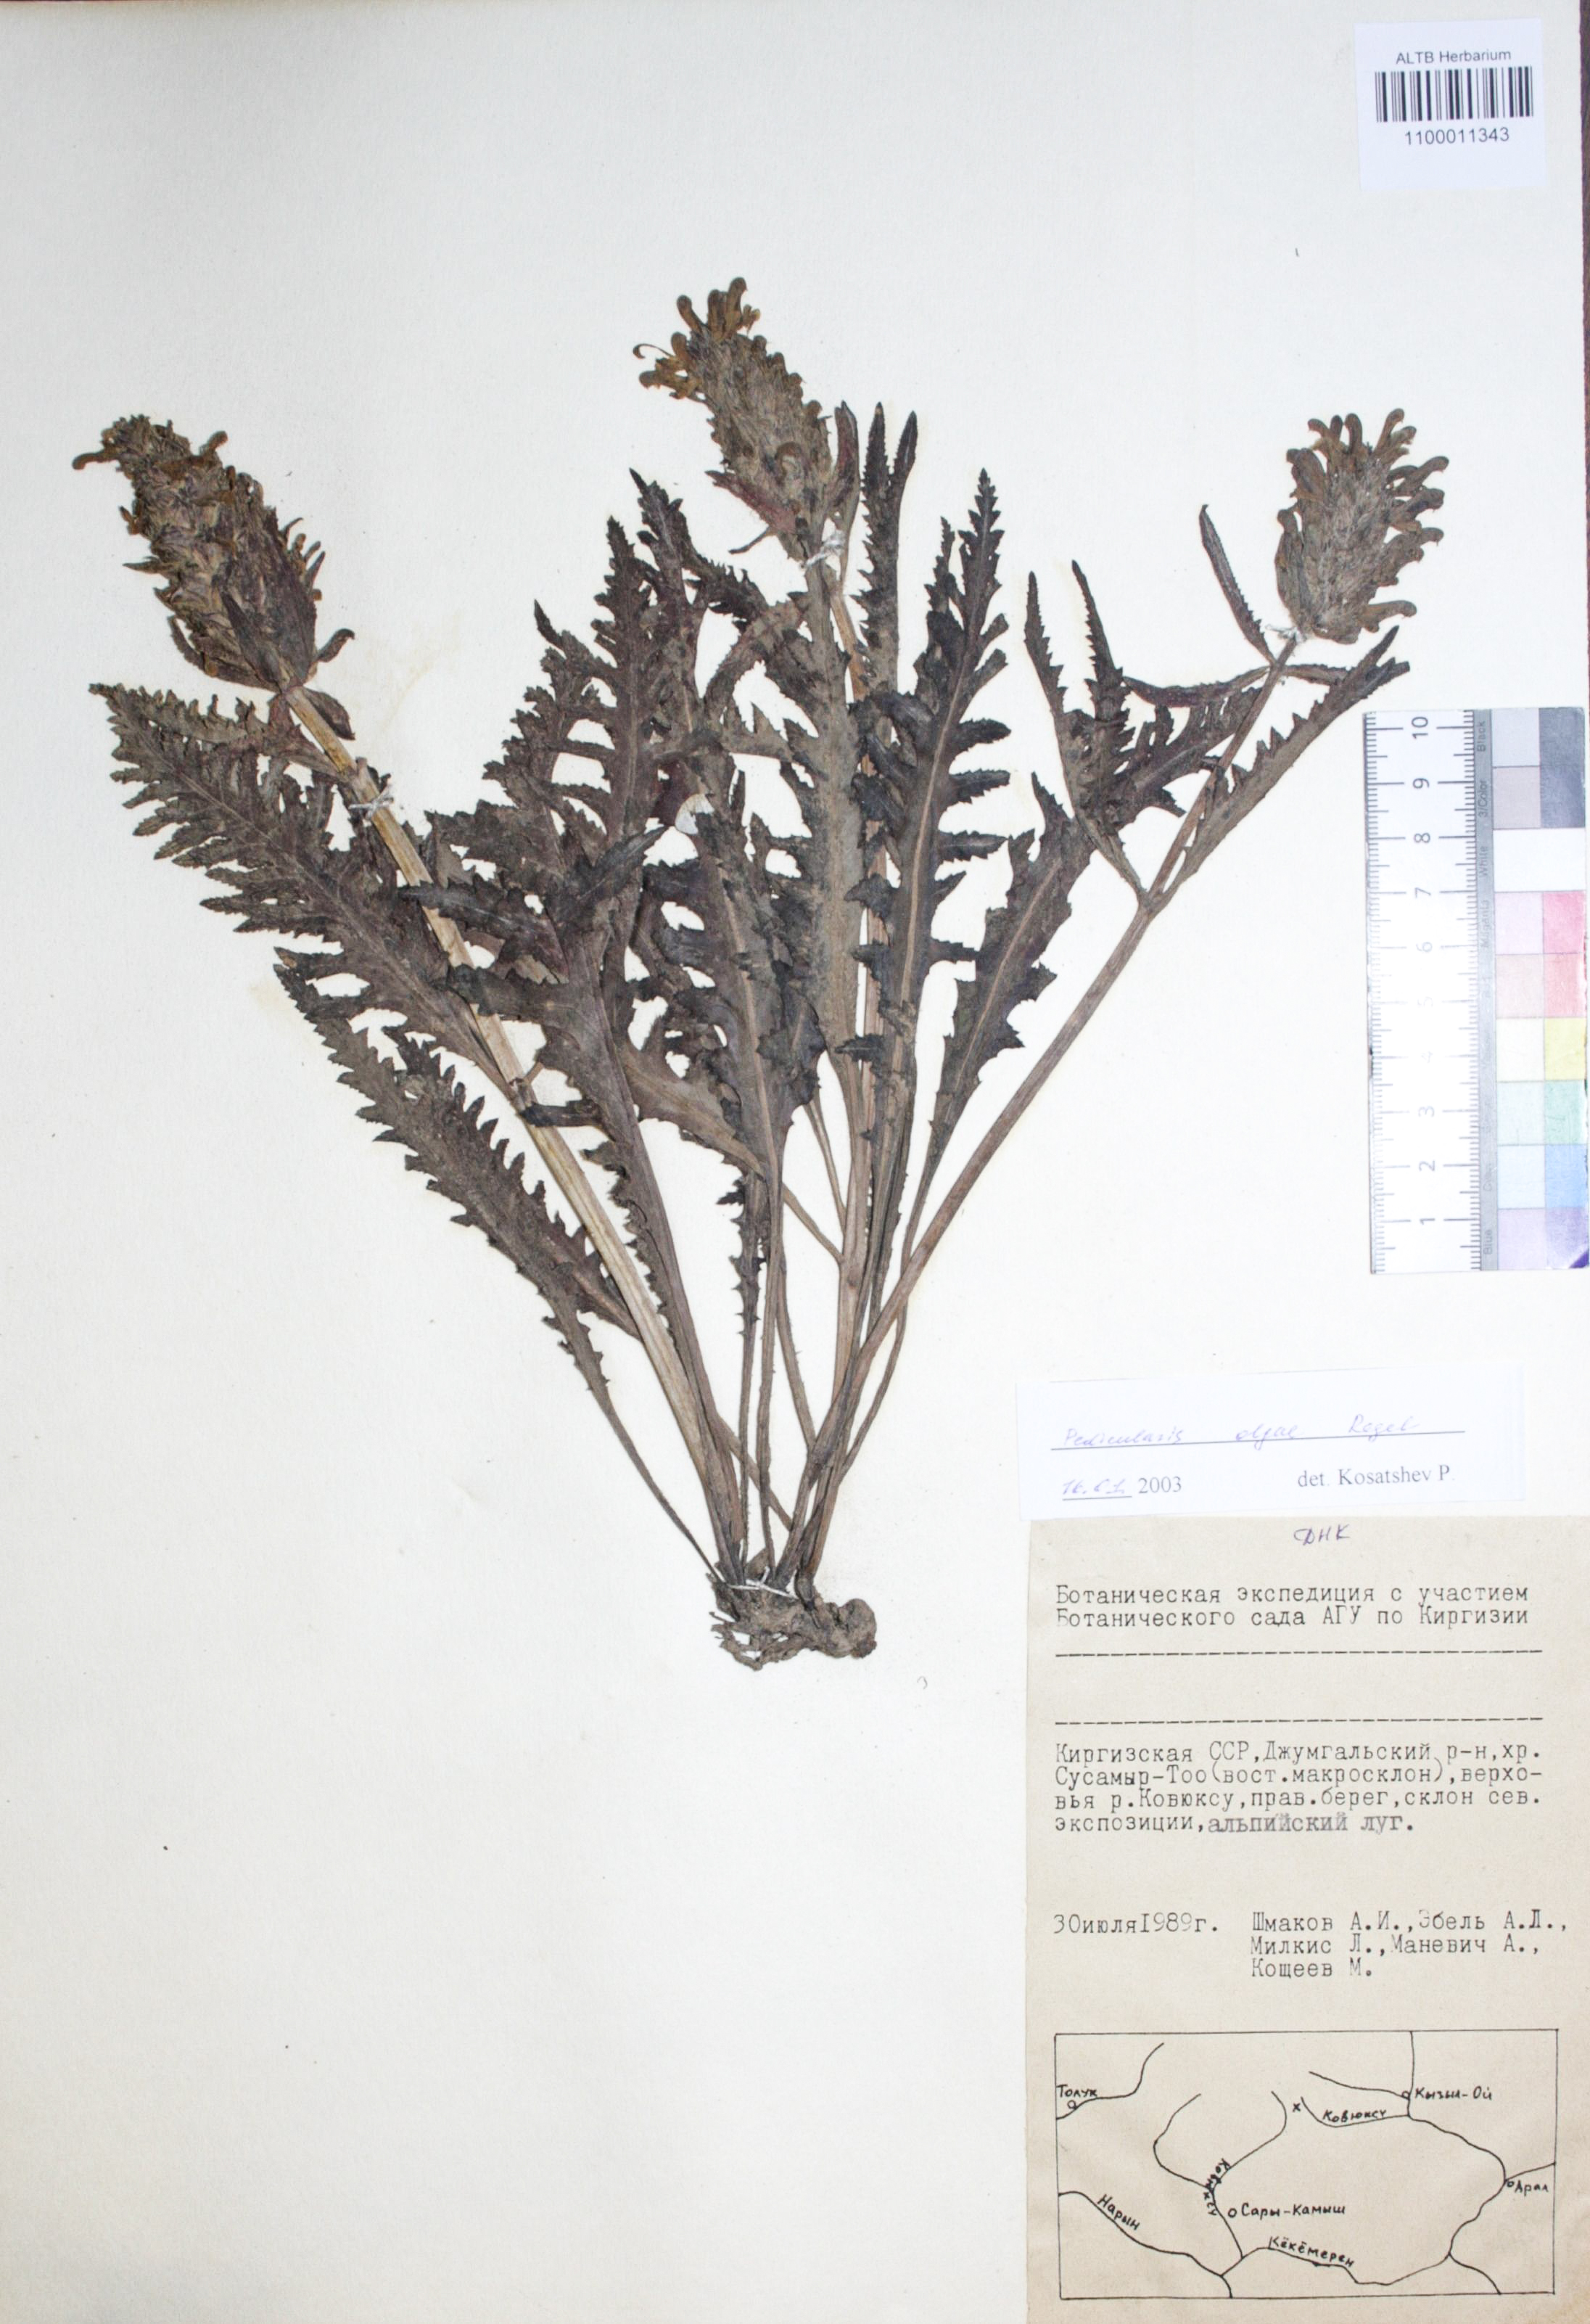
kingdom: Plantae
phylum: Tracheophyta
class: Magnoliopsida
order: Lamiales
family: Orobanchaceae
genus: Pedicularis
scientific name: Pedicularis olgae
